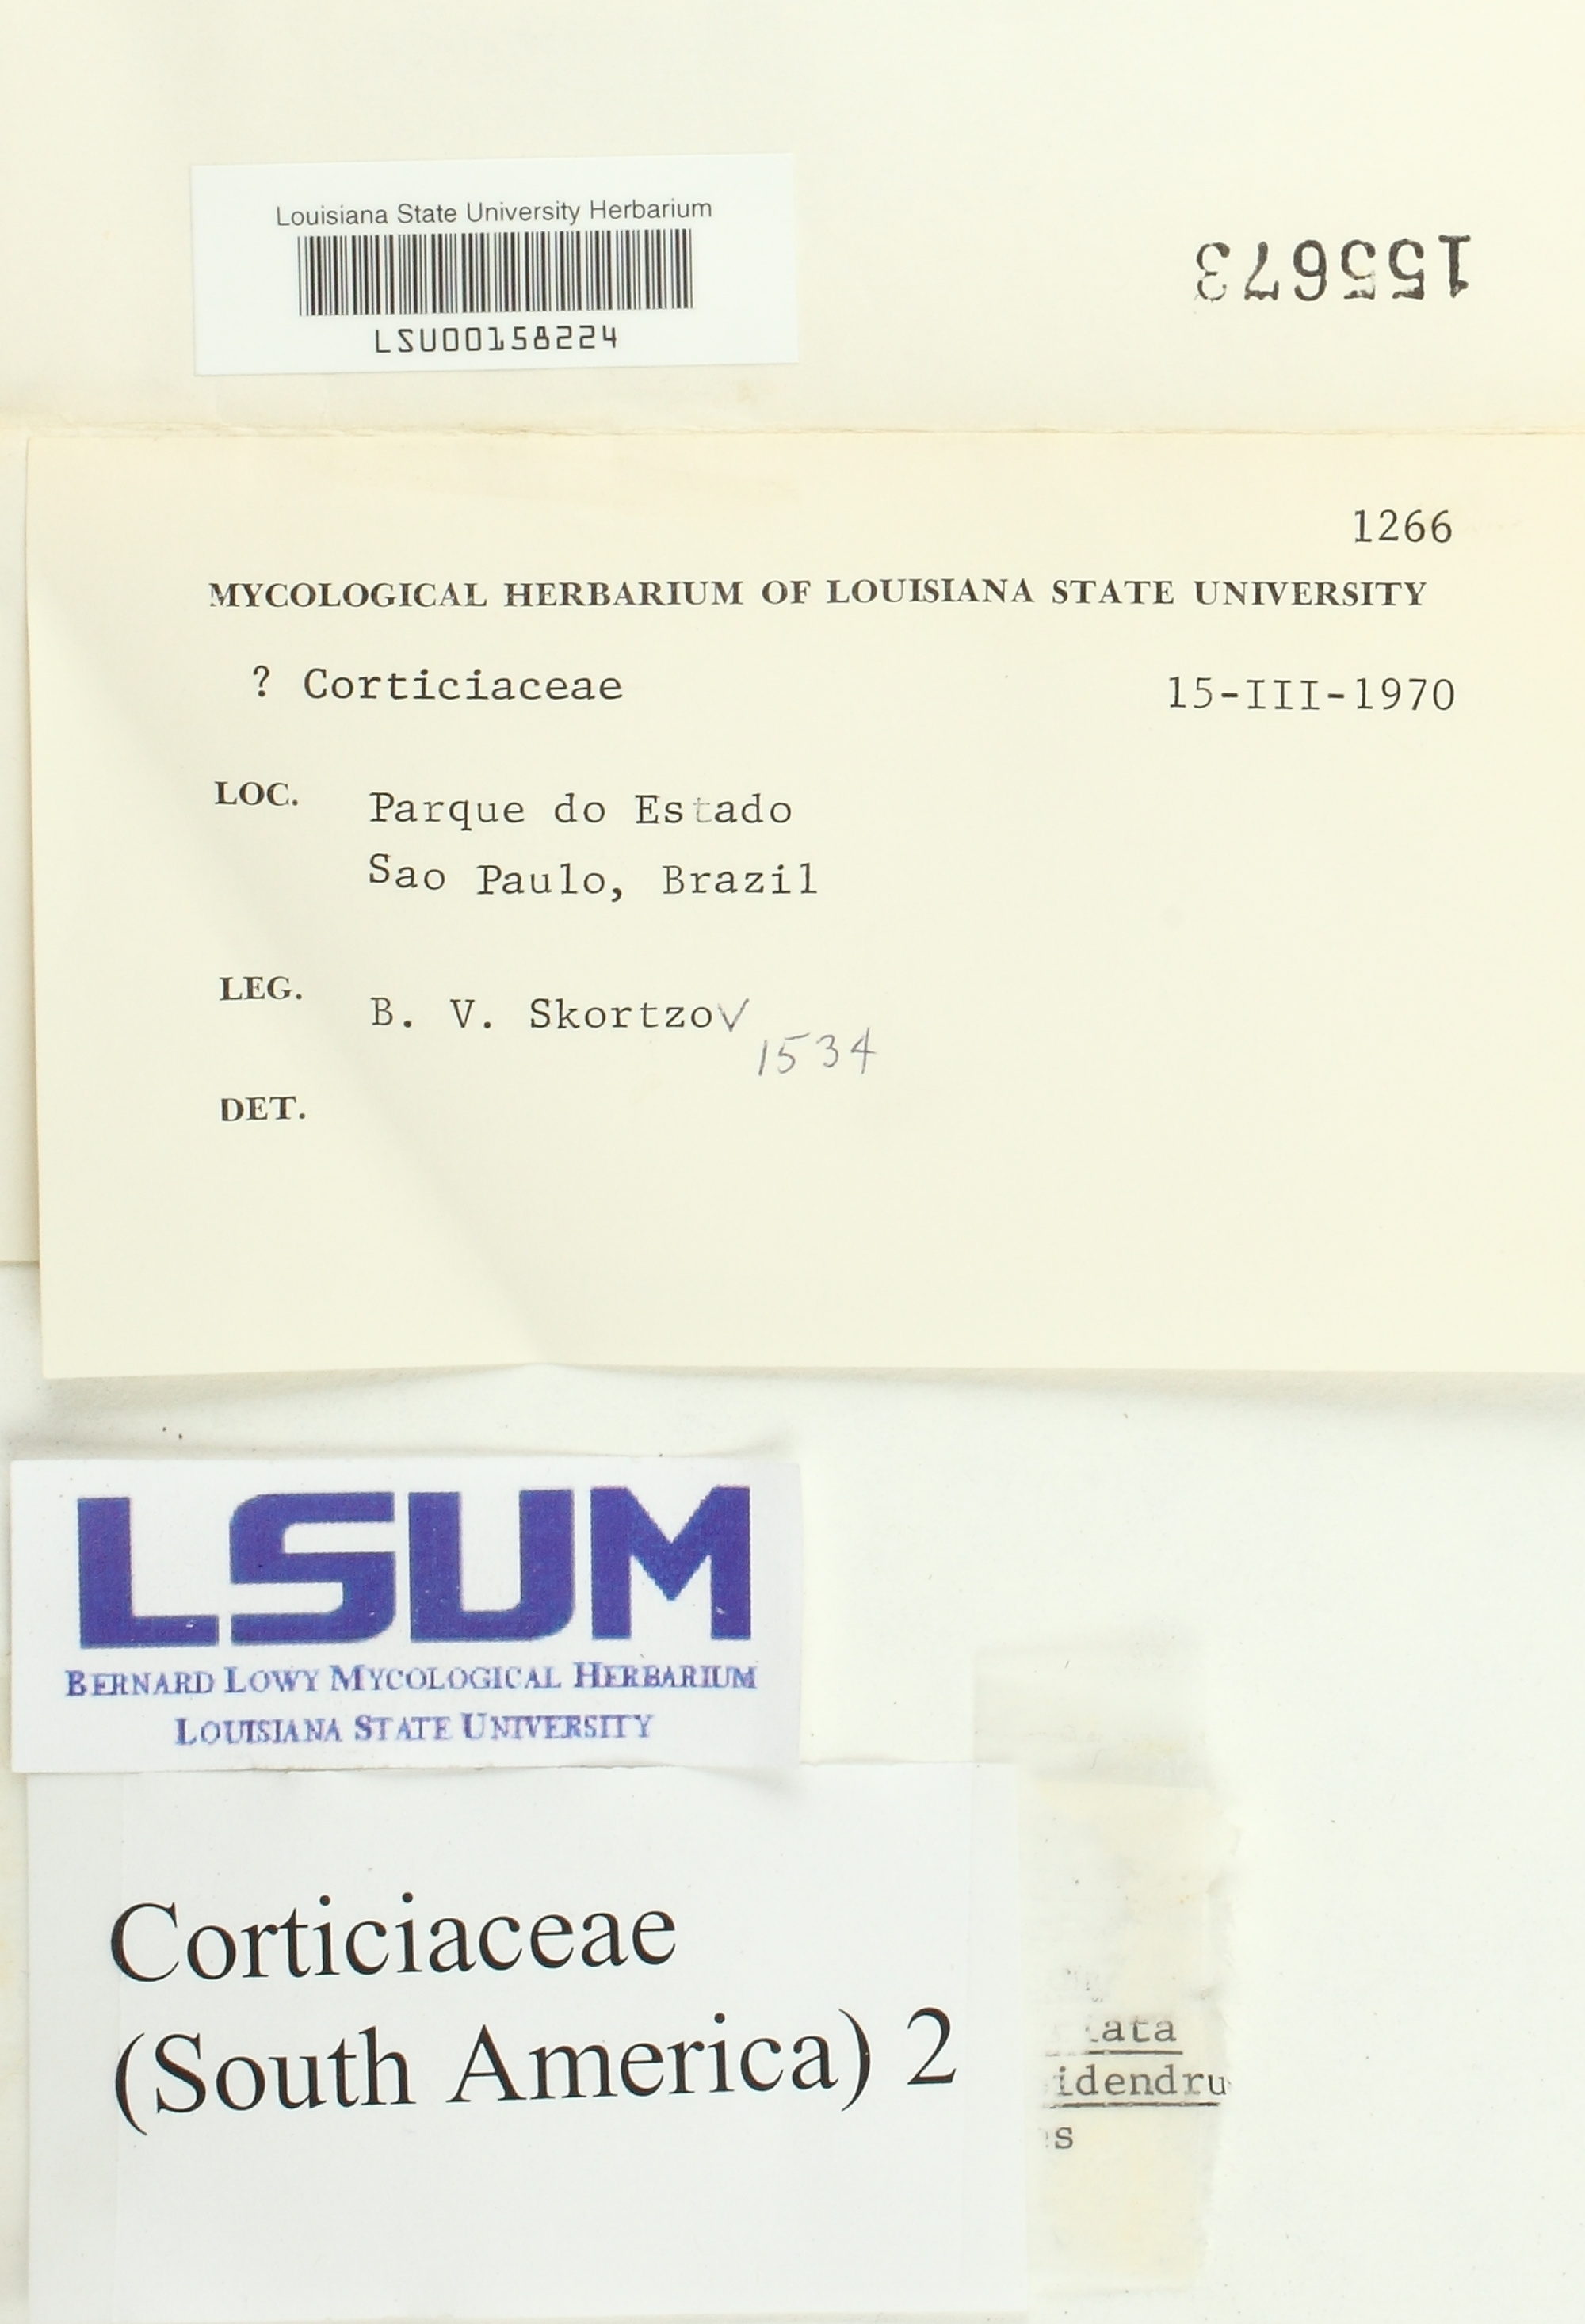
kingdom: Fungi
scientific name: Fungi
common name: Fungi
